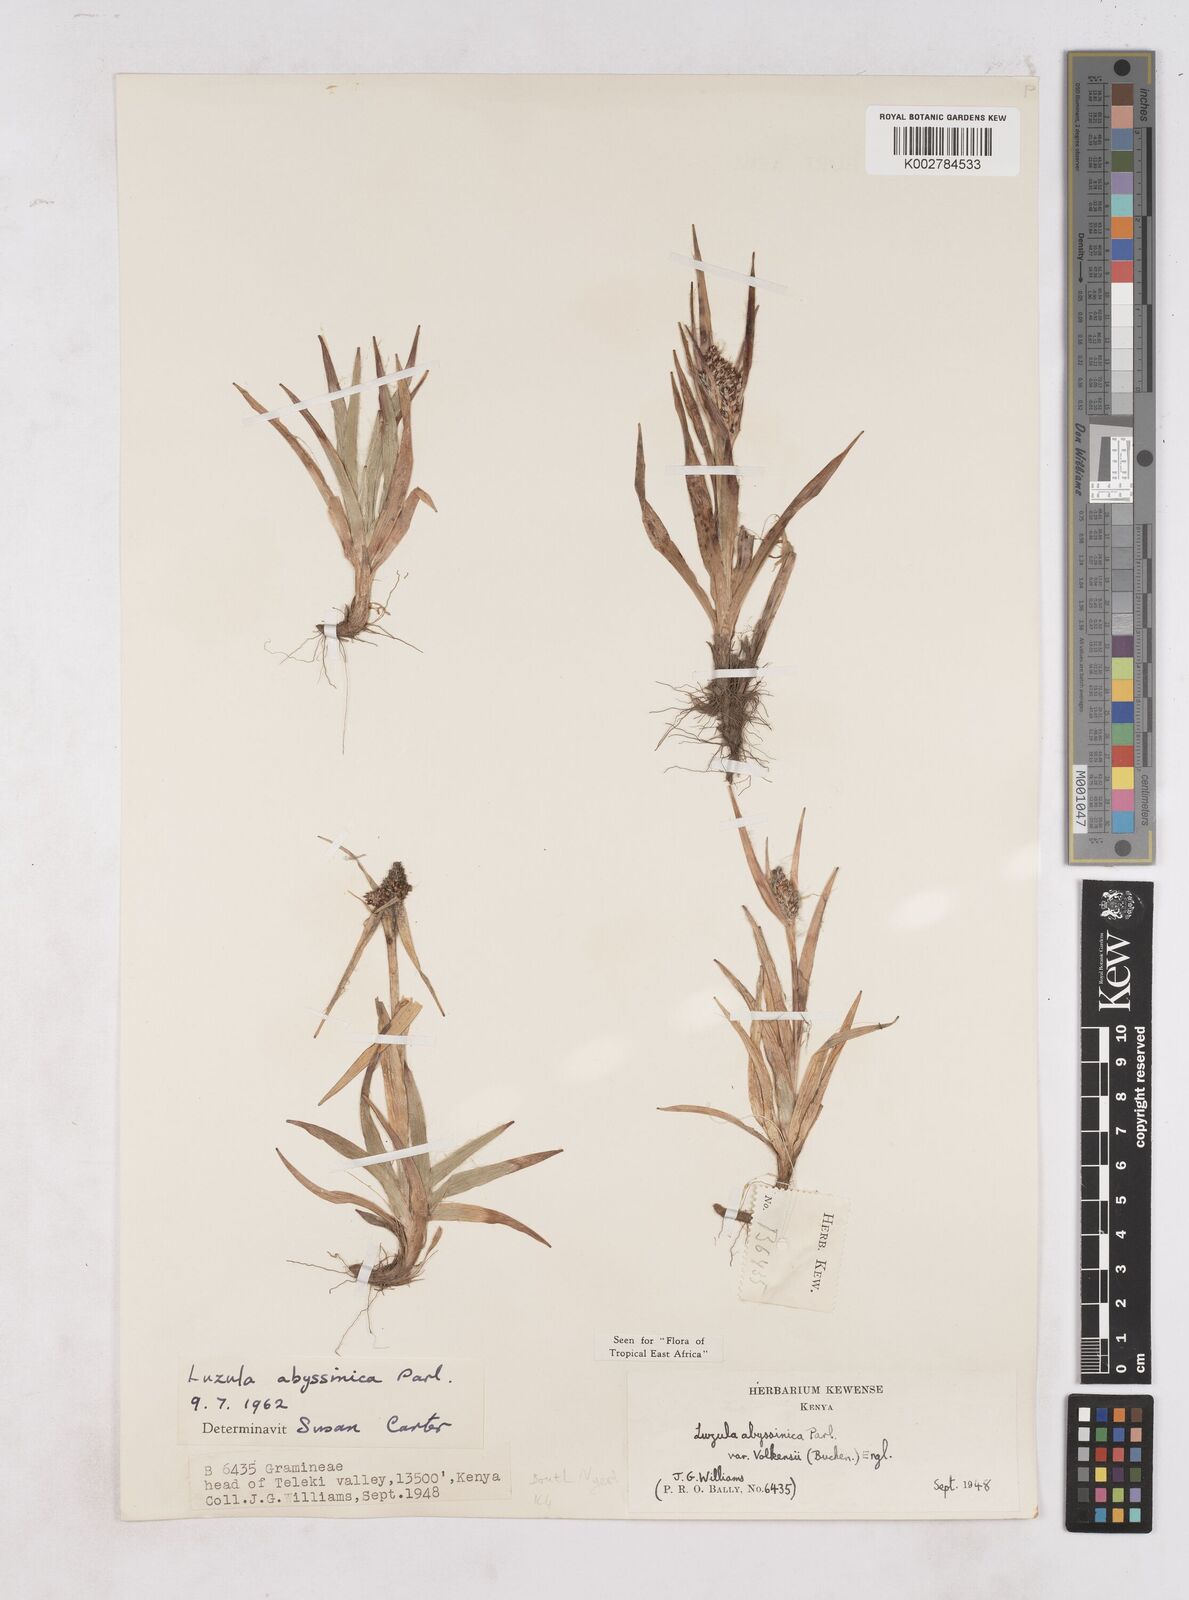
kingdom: Plantae
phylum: Tracheophyta
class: Liliopsida
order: Poales
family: Juncaceae
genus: Luzula
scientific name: Luzula abyssinica
